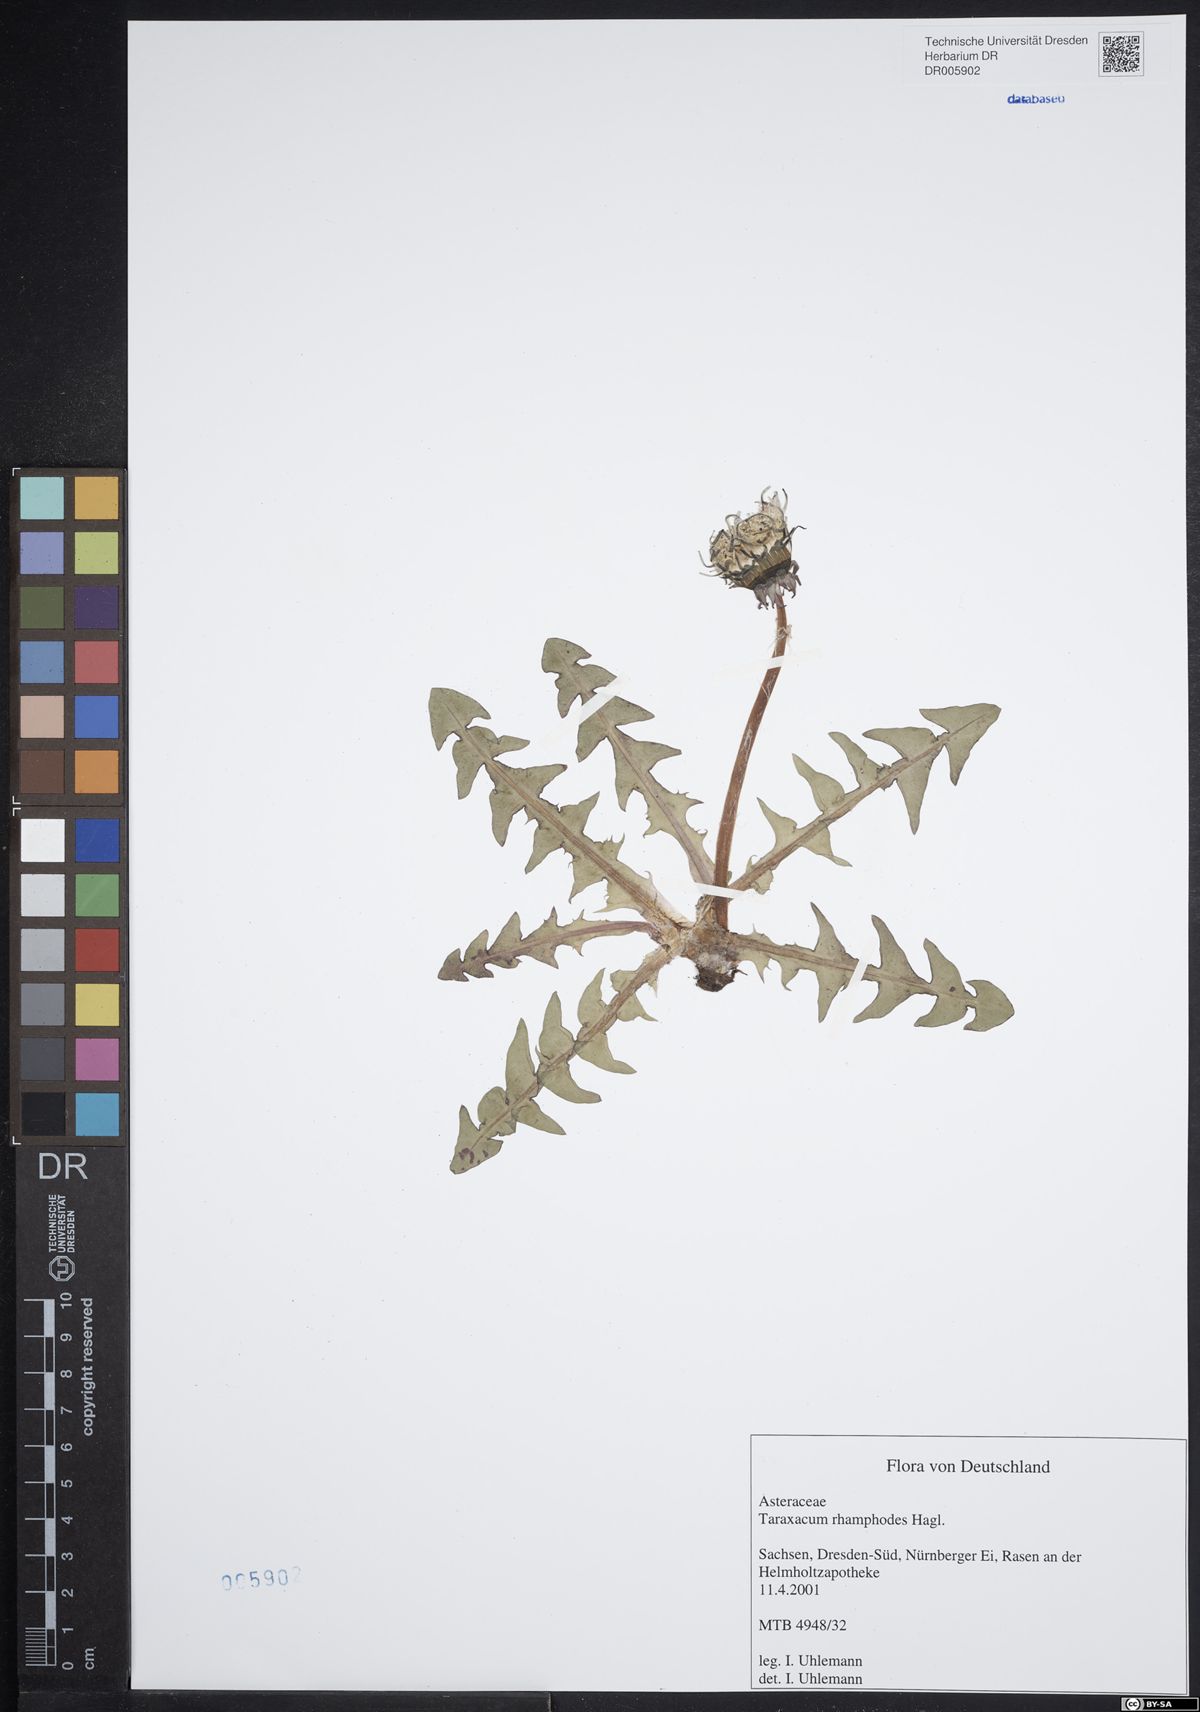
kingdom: Plantae
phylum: Tracheophyta
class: Magnoliopsida
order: Asterales
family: Asteraceae
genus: Taraxacum
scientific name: Taraxacum rhamphodes
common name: Robust dandelion
